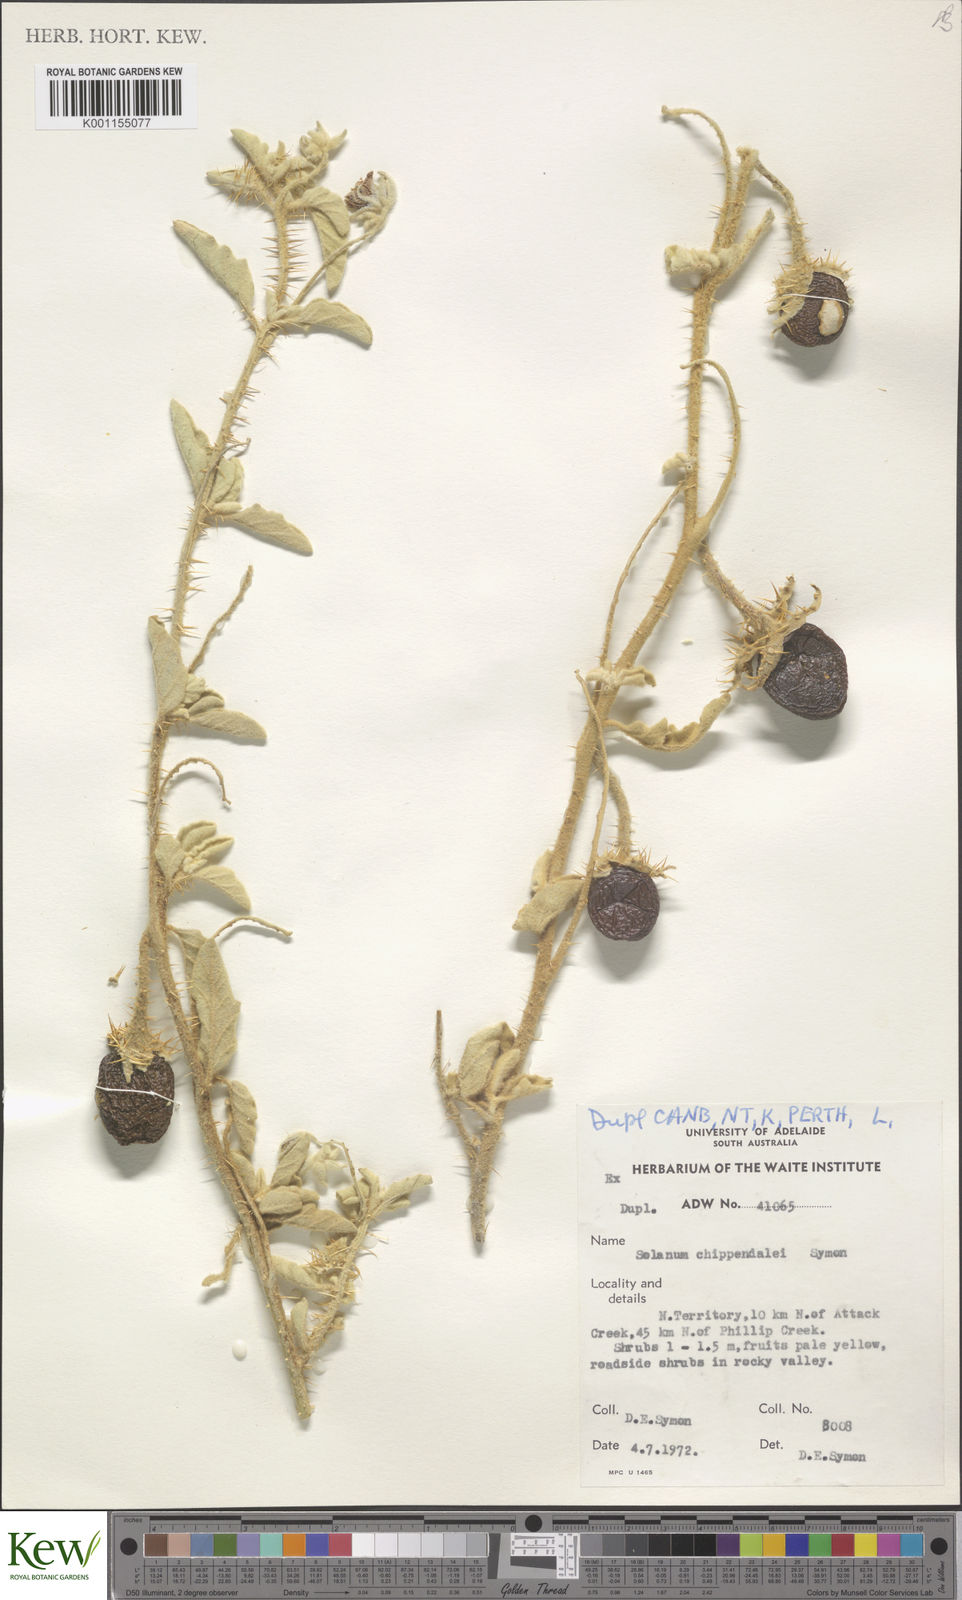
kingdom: Plantae
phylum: Tracheophyta
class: Magnoliopsida
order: Solanales
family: Solanaceae
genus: Solanum
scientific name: Solanum chippendalei
